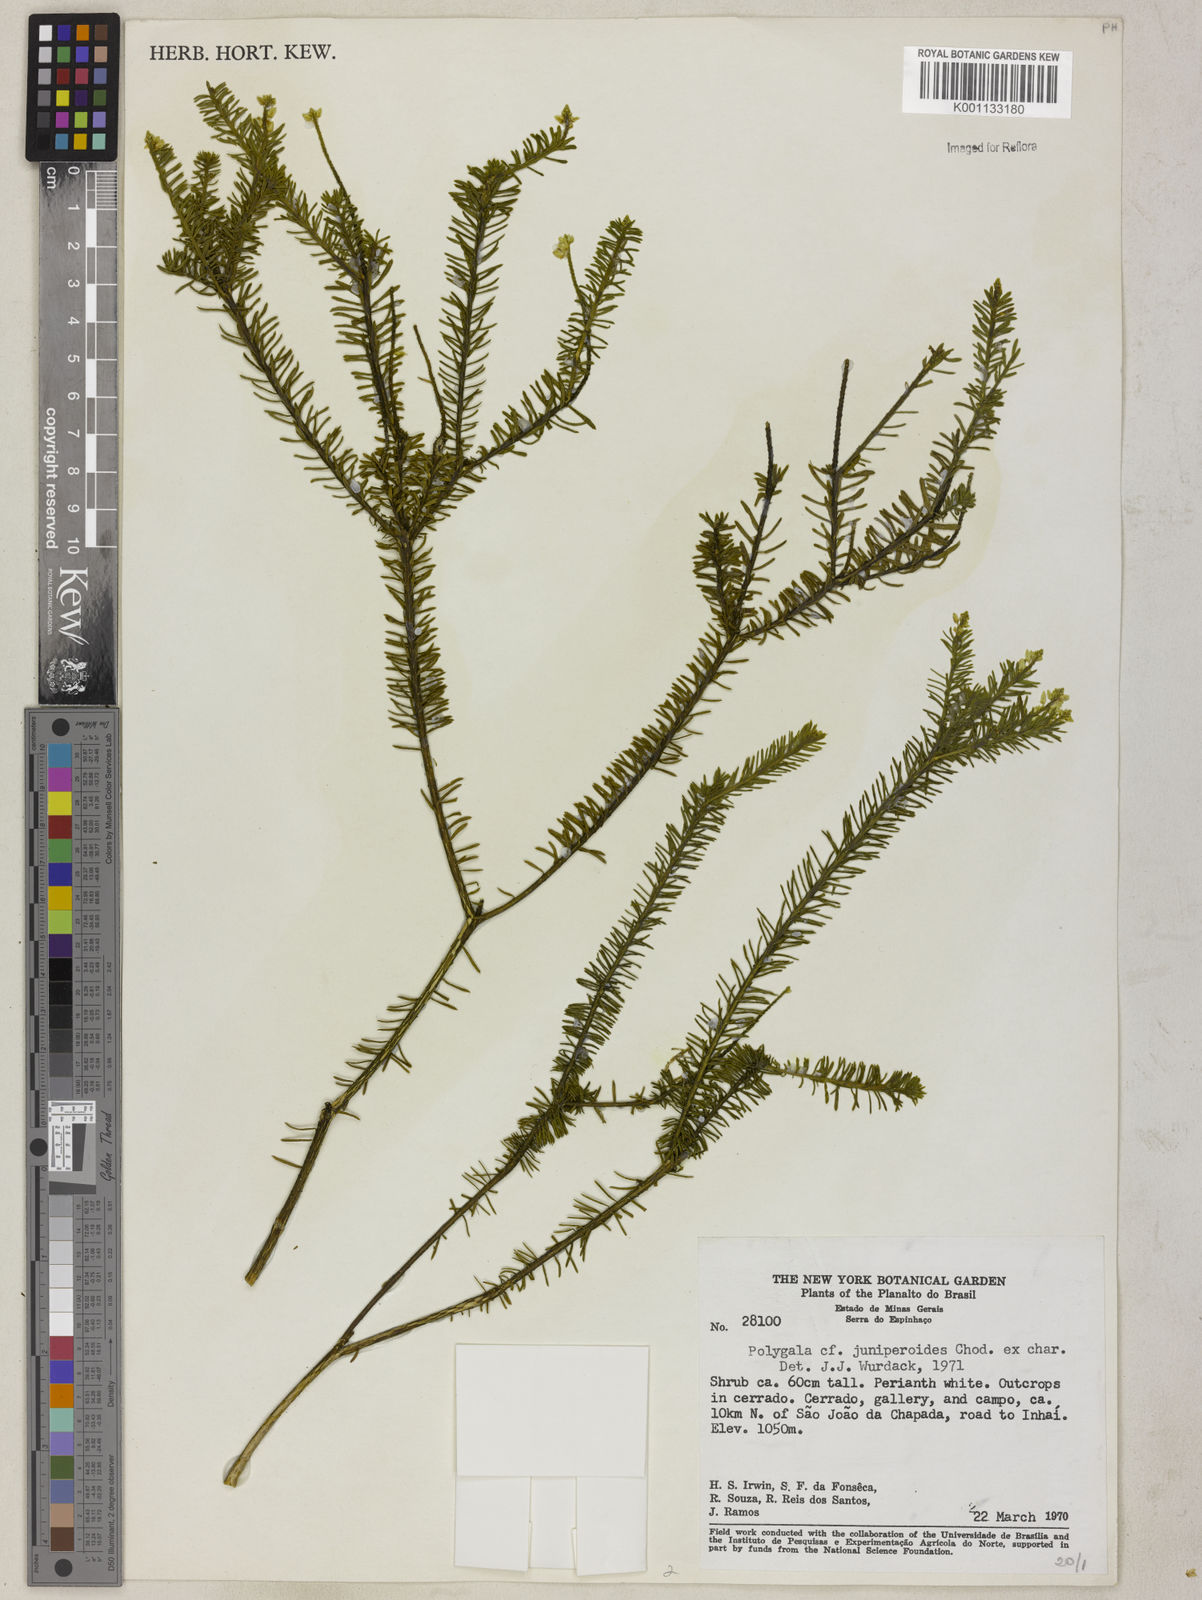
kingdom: Plantae
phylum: Tracheophyta
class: Magnoliopsida
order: Fabales
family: Polygalaceae
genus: Polygala
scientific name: Polygala pseudoerica
